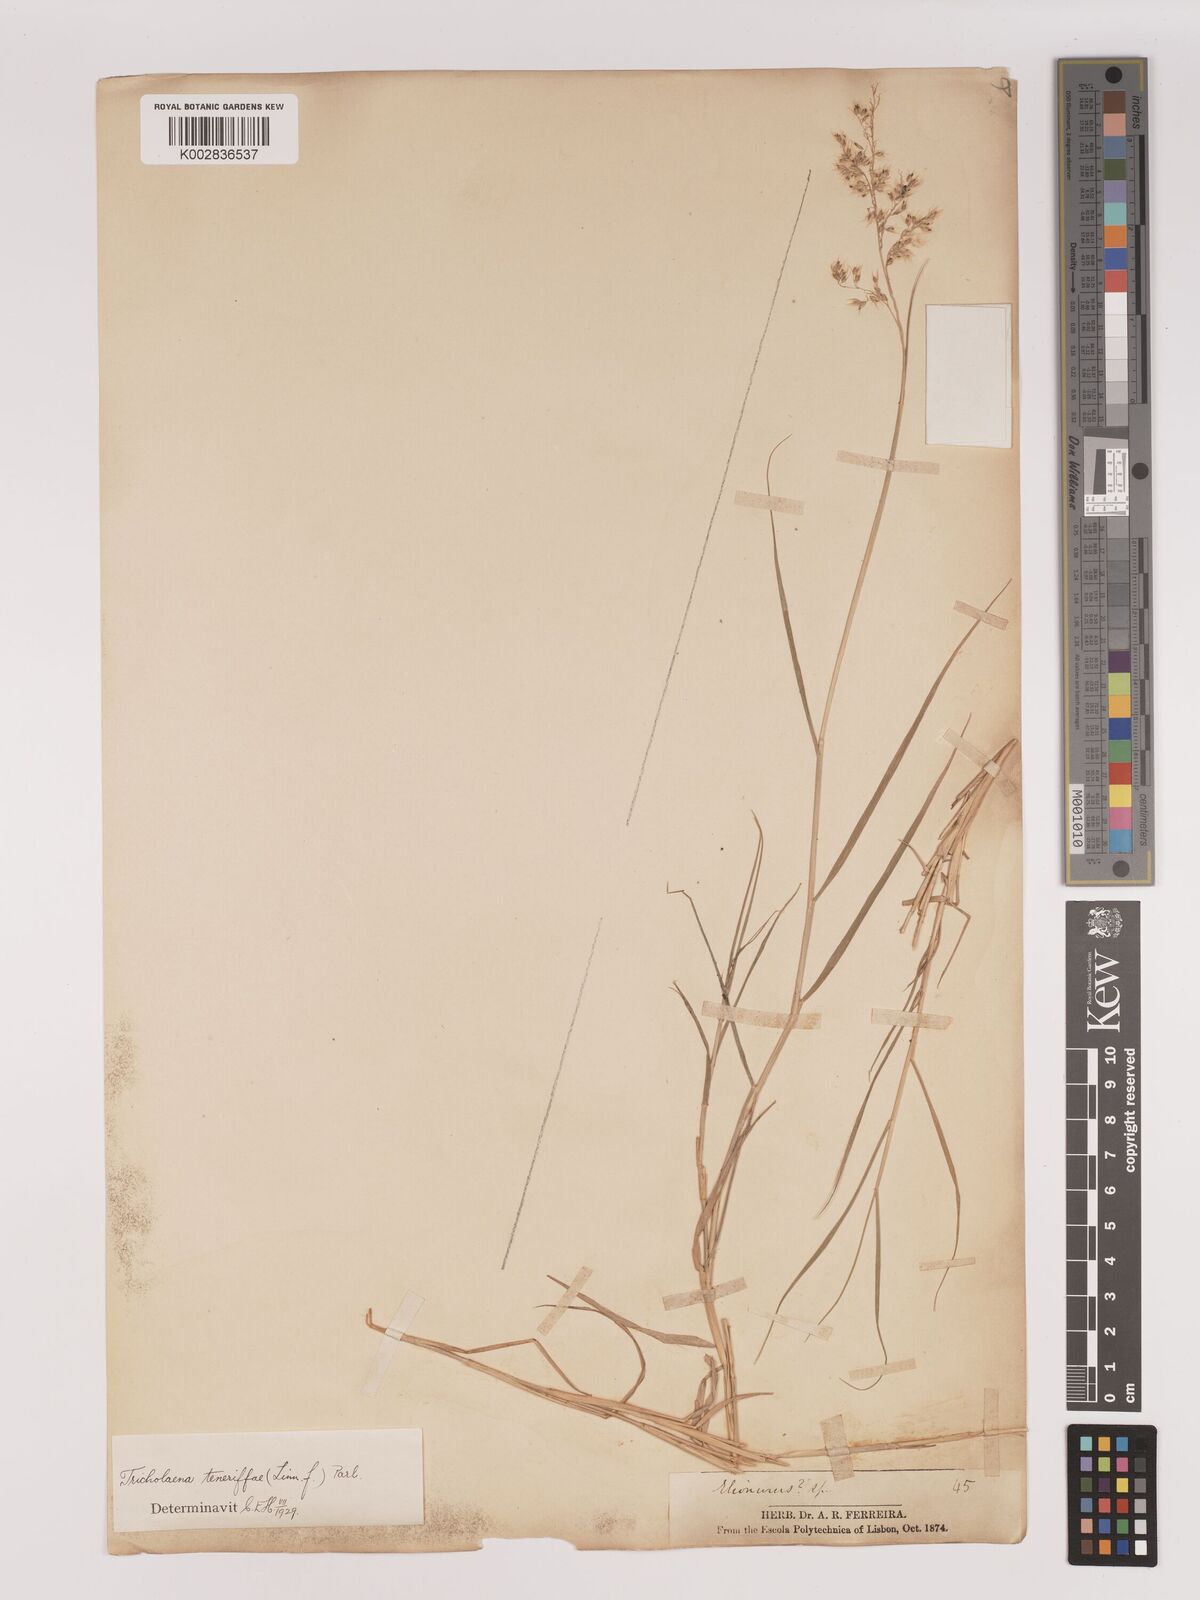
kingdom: Plantae
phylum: Tracheophyta
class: Liliopsida
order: Poales
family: Poaceae
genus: Tricholaena
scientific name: Tricholaena teneriffae
